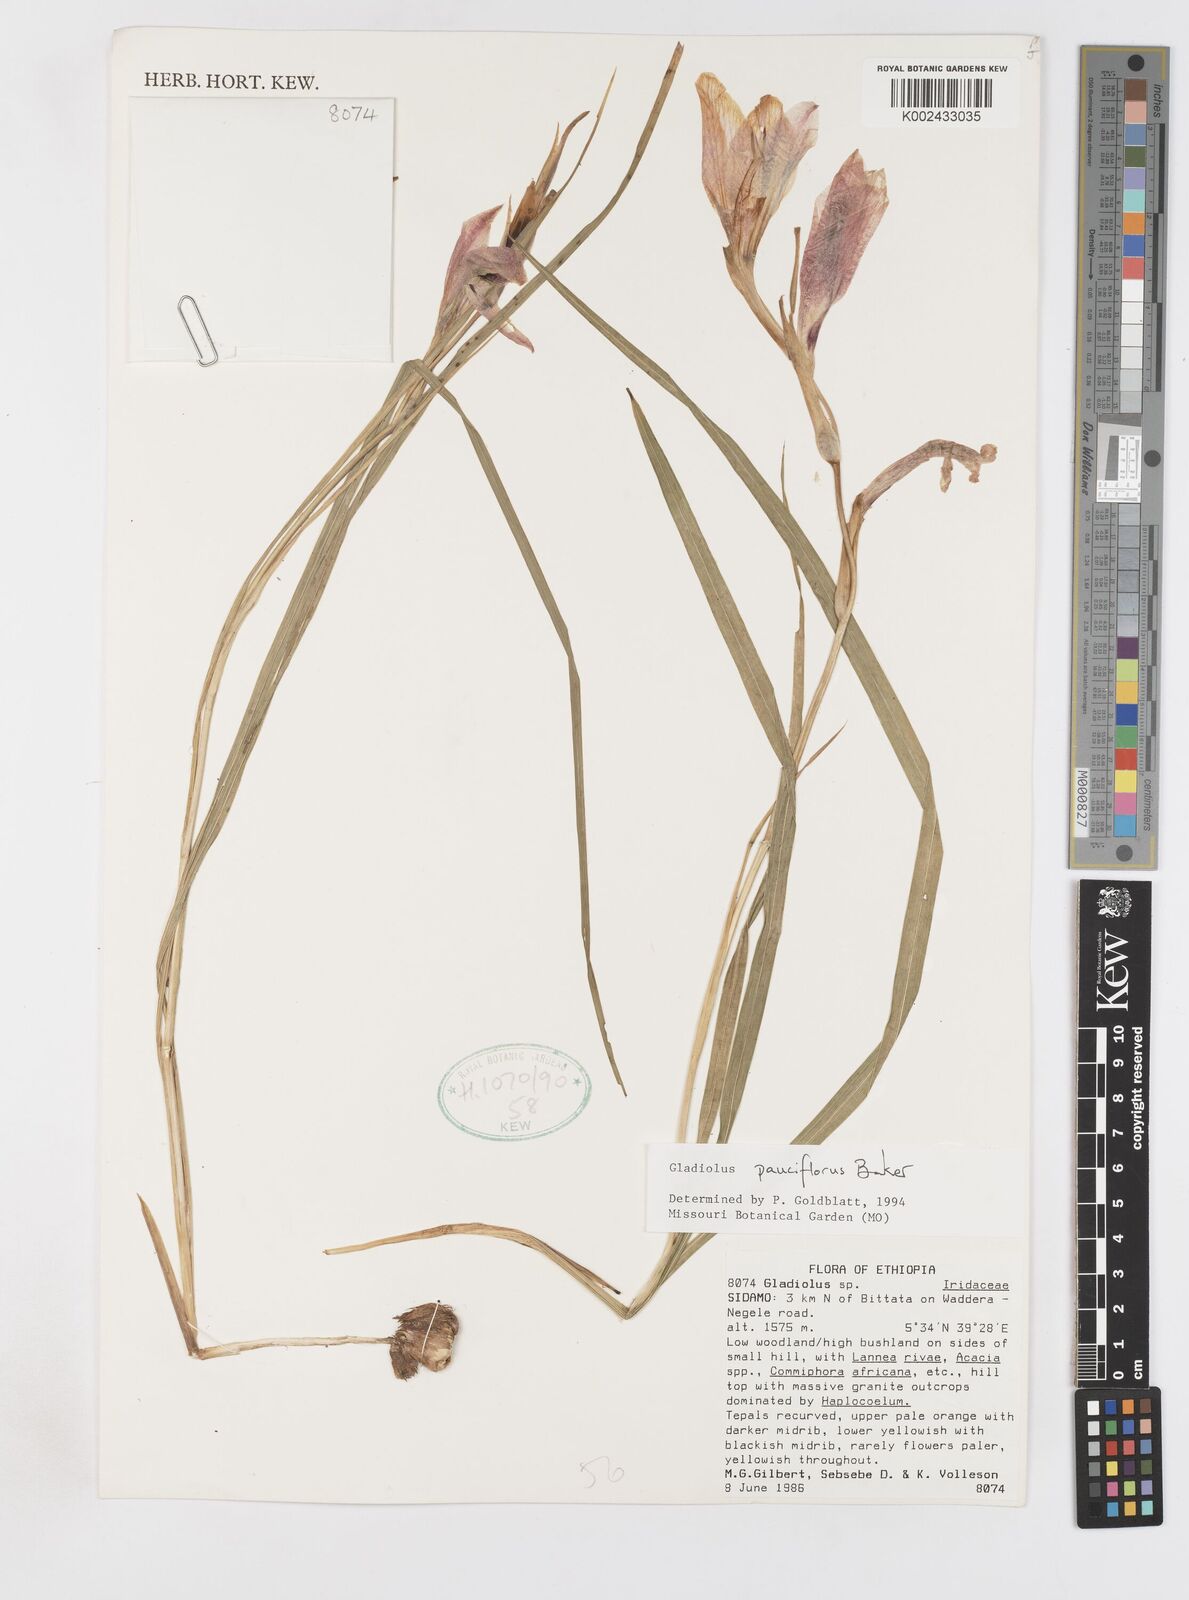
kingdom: Plantae
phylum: Tracheophyta
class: Liliopsida
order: Asparagales
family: Iridaceae
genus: Gladiolus
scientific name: Gladiolus pauciflorus
